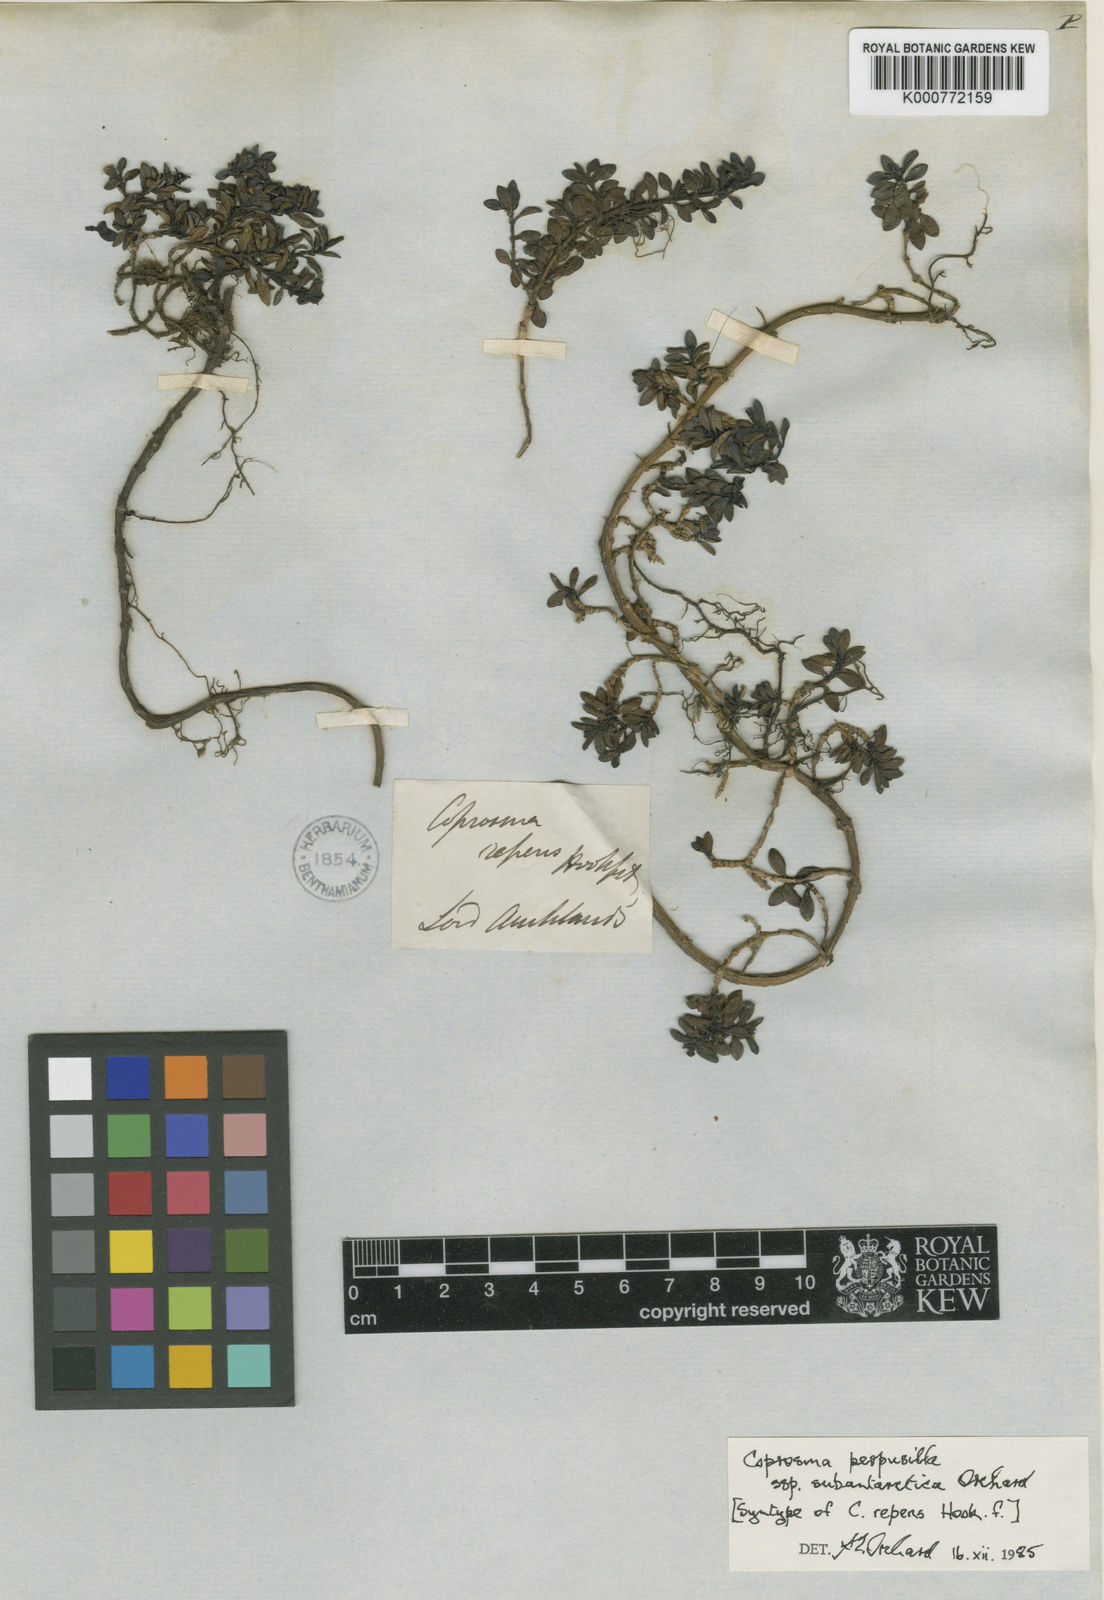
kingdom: Plantae
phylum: Tracheophyta
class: Magnoliopsida
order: Gentianales
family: Rubiaceae
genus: Coprosma
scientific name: Coprosma perpusilla
